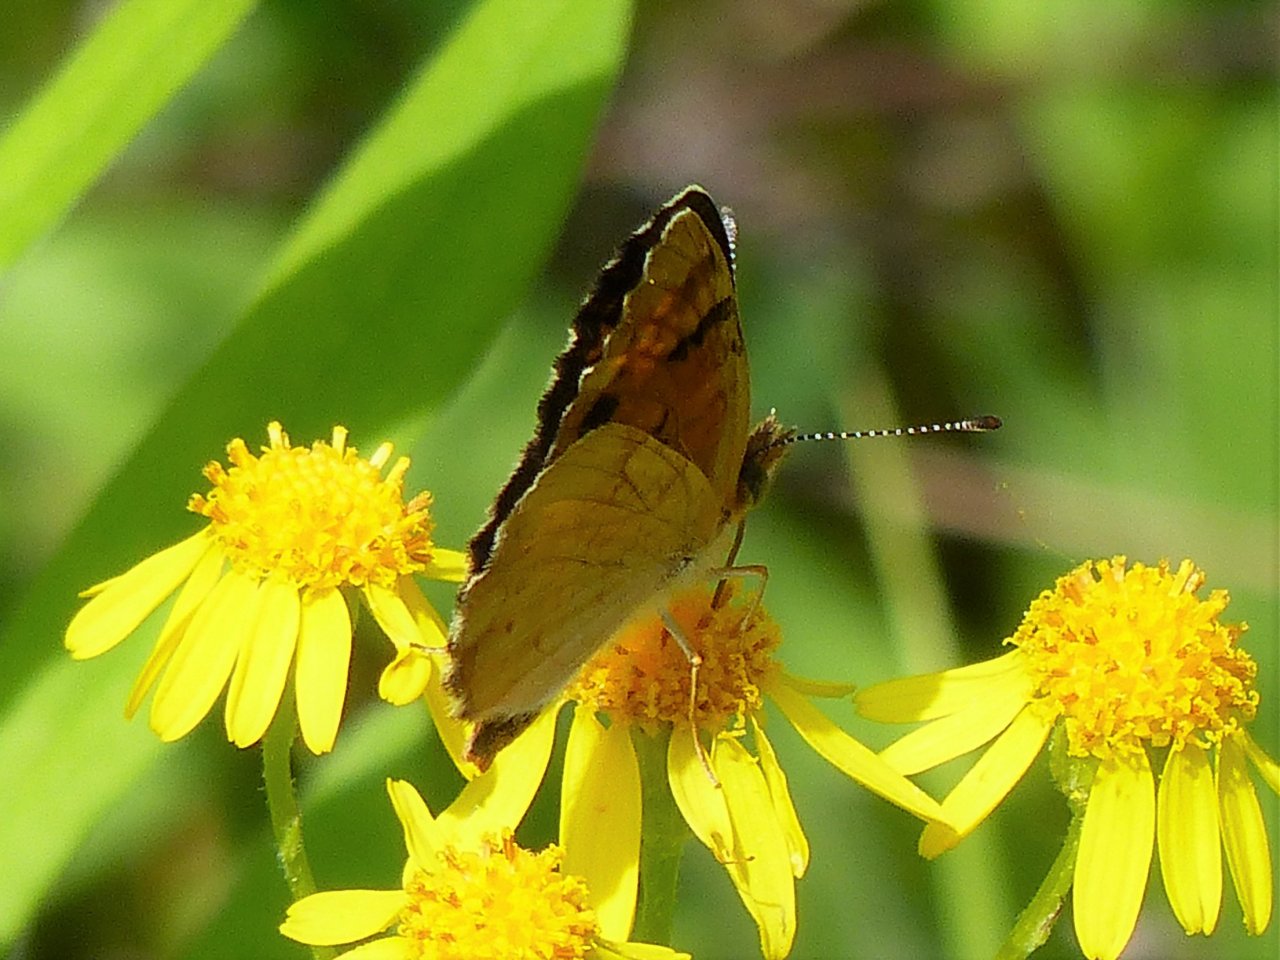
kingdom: Animalia
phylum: Arthropoda
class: Insecta
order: Lepidoptera
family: Nymphalidae
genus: Phyciodes
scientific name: Phyciodes batesii
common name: Tawny Crescent
